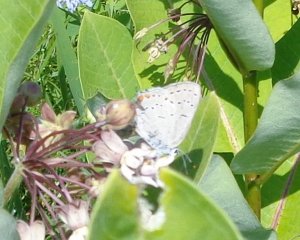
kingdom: Animalia
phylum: Arthropoda
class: Insecta
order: Lepidoptera
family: Lycaenidae
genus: Strymon
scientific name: Strymon acadica
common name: Acadian Hairstreak
